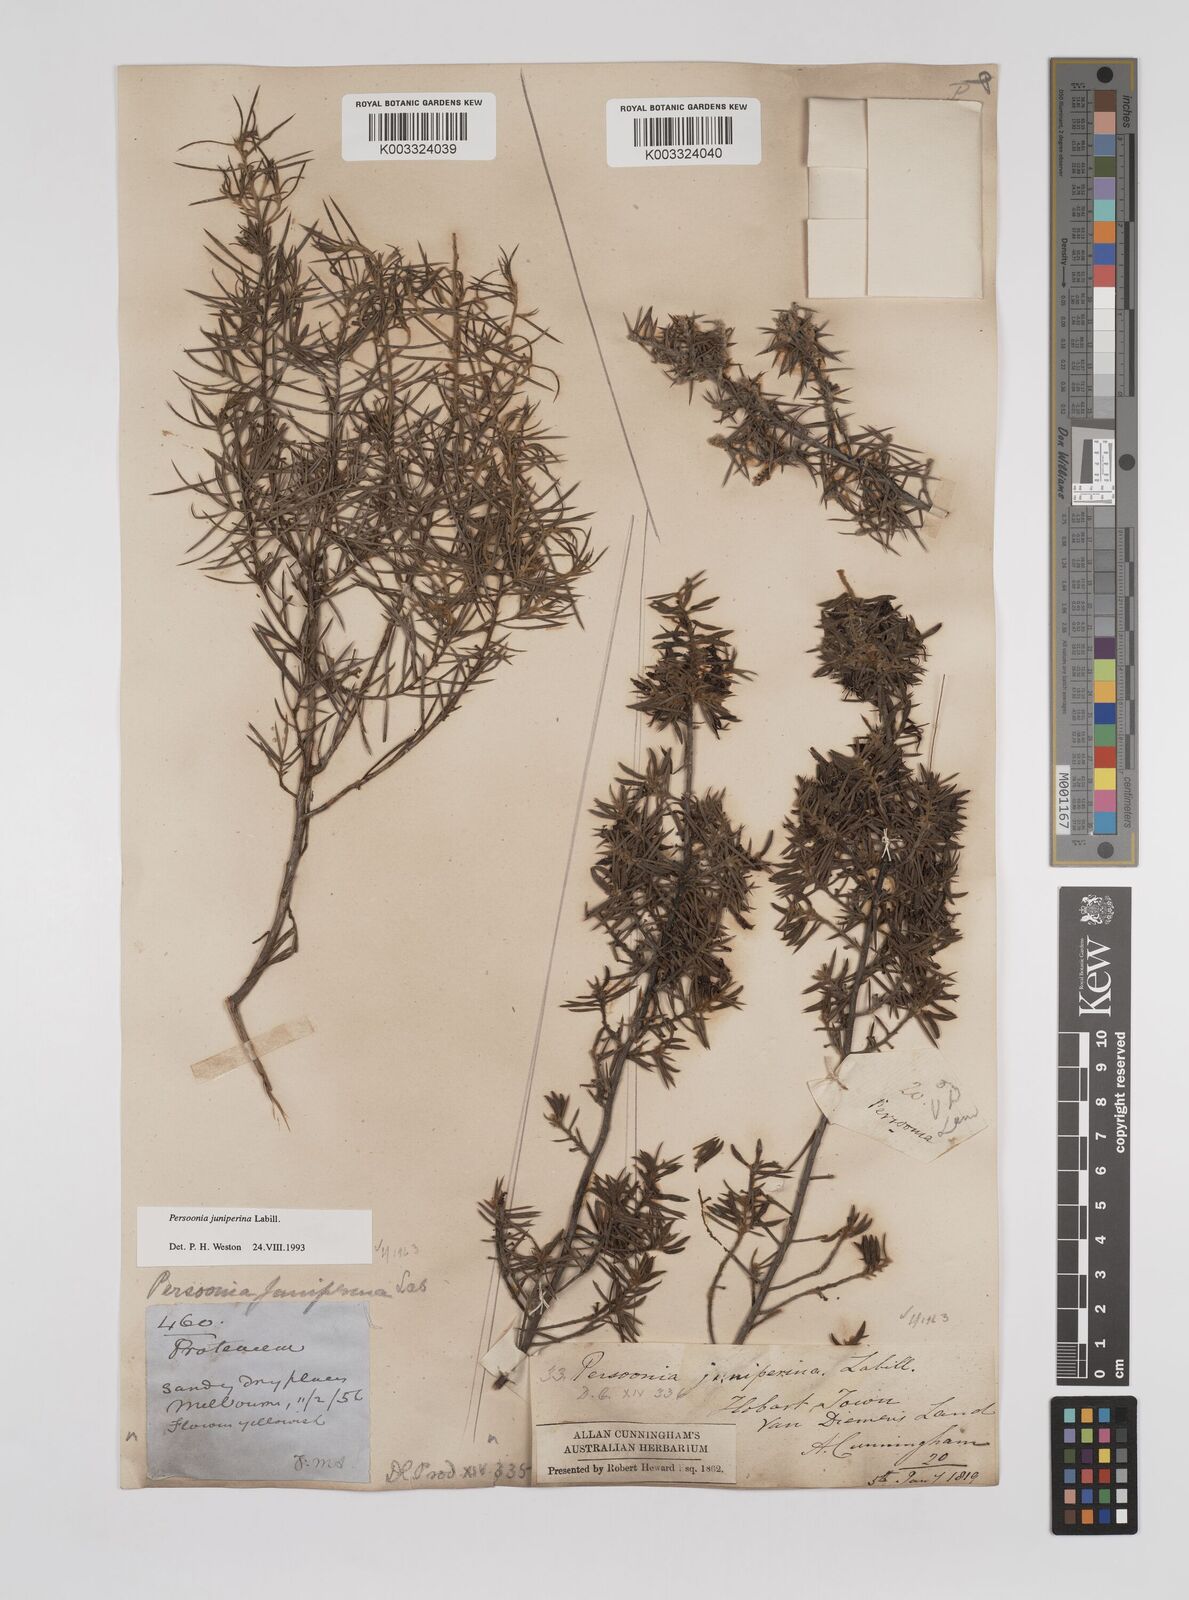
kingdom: Plantae
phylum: Tracheophyta
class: Magnoliopsida
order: Proteales
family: Proteaceae
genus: Persoonia
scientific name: Persoonia juniperina
